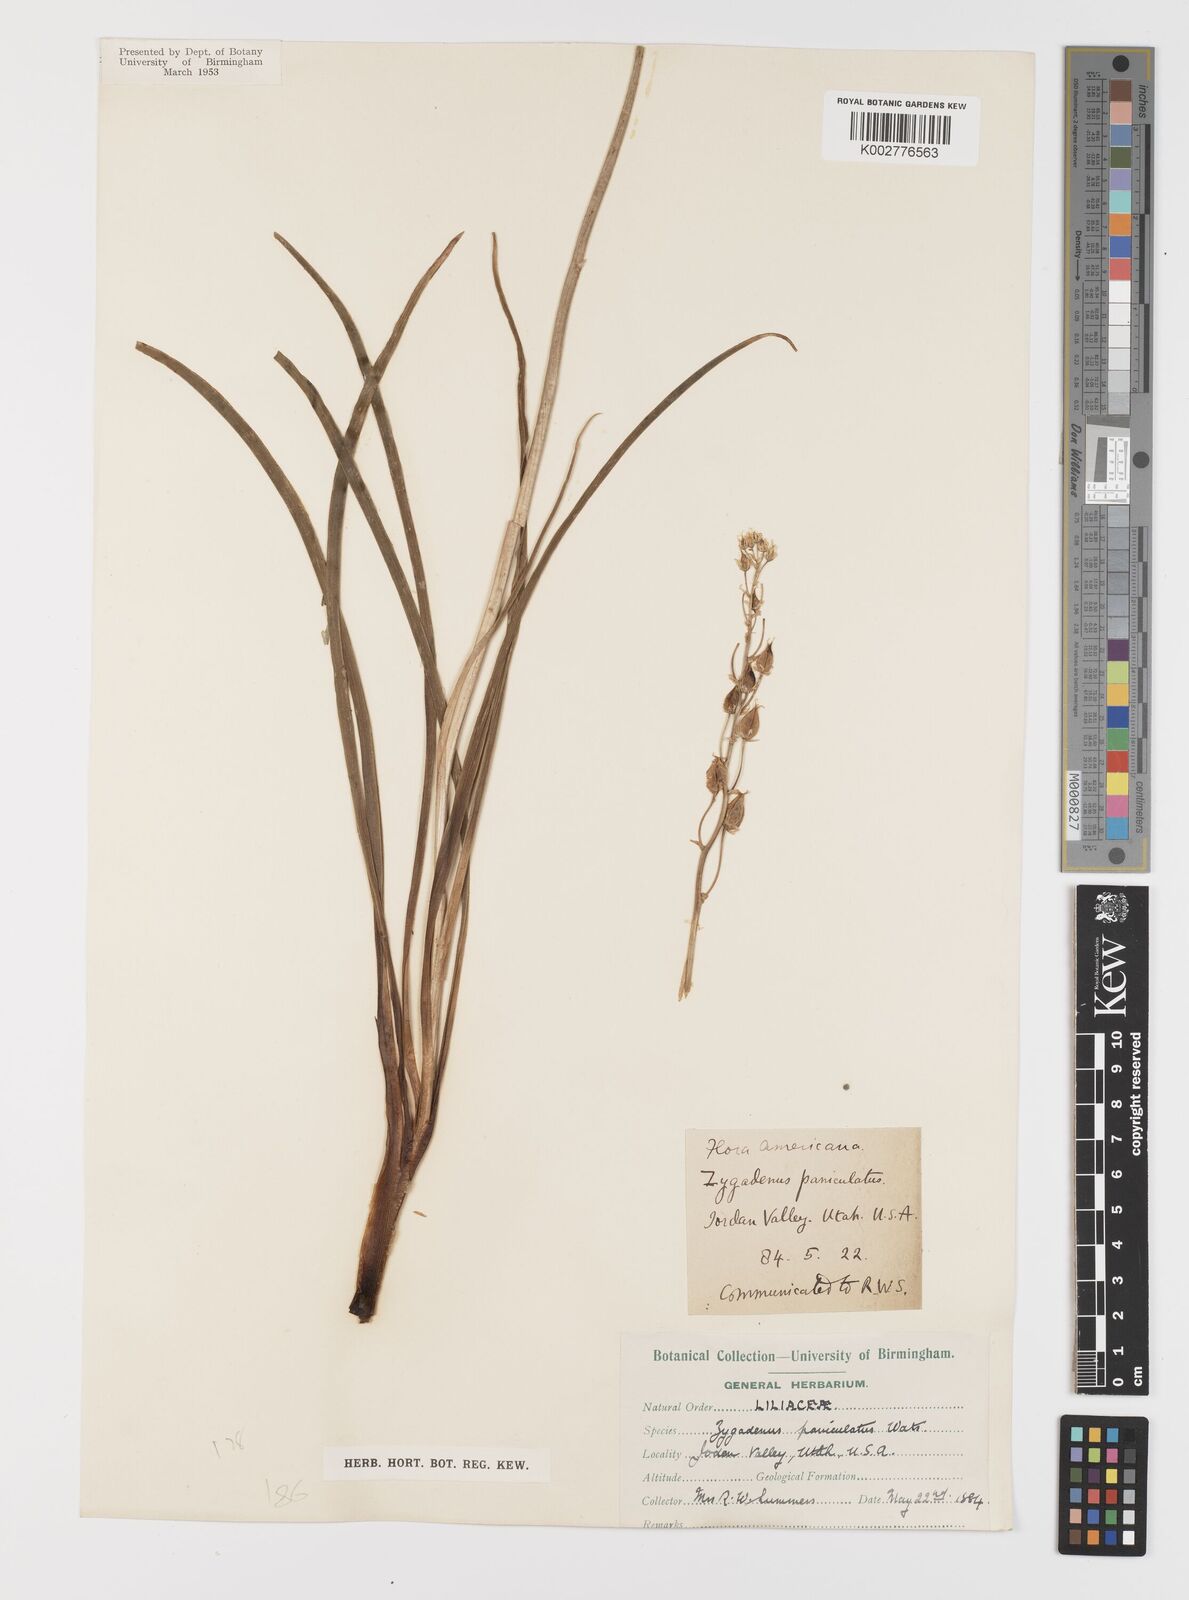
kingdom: Plantae
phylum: Tracheophyta
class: Liliopsida
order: Liliales
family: Melanthiaceae
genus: Toxicoscordion
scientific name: Toxicoscordion paniculatum
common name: Foothill death camas
